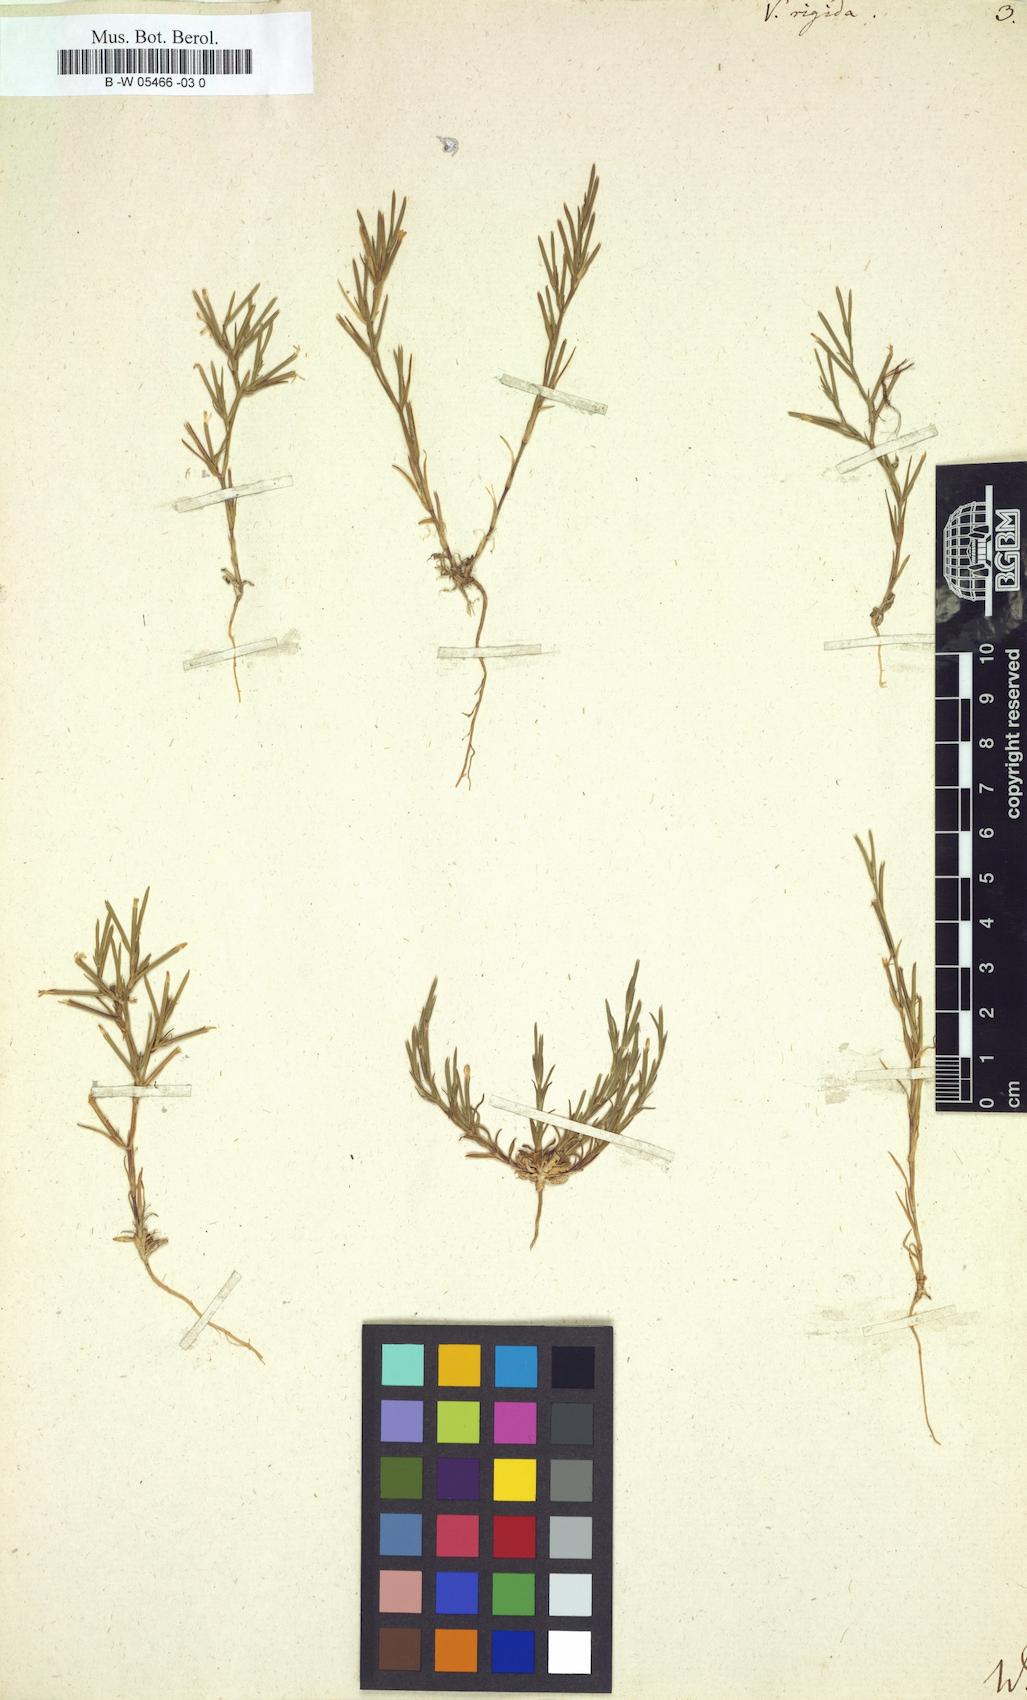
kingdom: Plantae
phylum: Tracheophyta
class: Magnoliopsida
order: Caryophyllales
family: Caryophyllaceae
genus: Dianthus
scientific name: Dianthus nudiflorus
